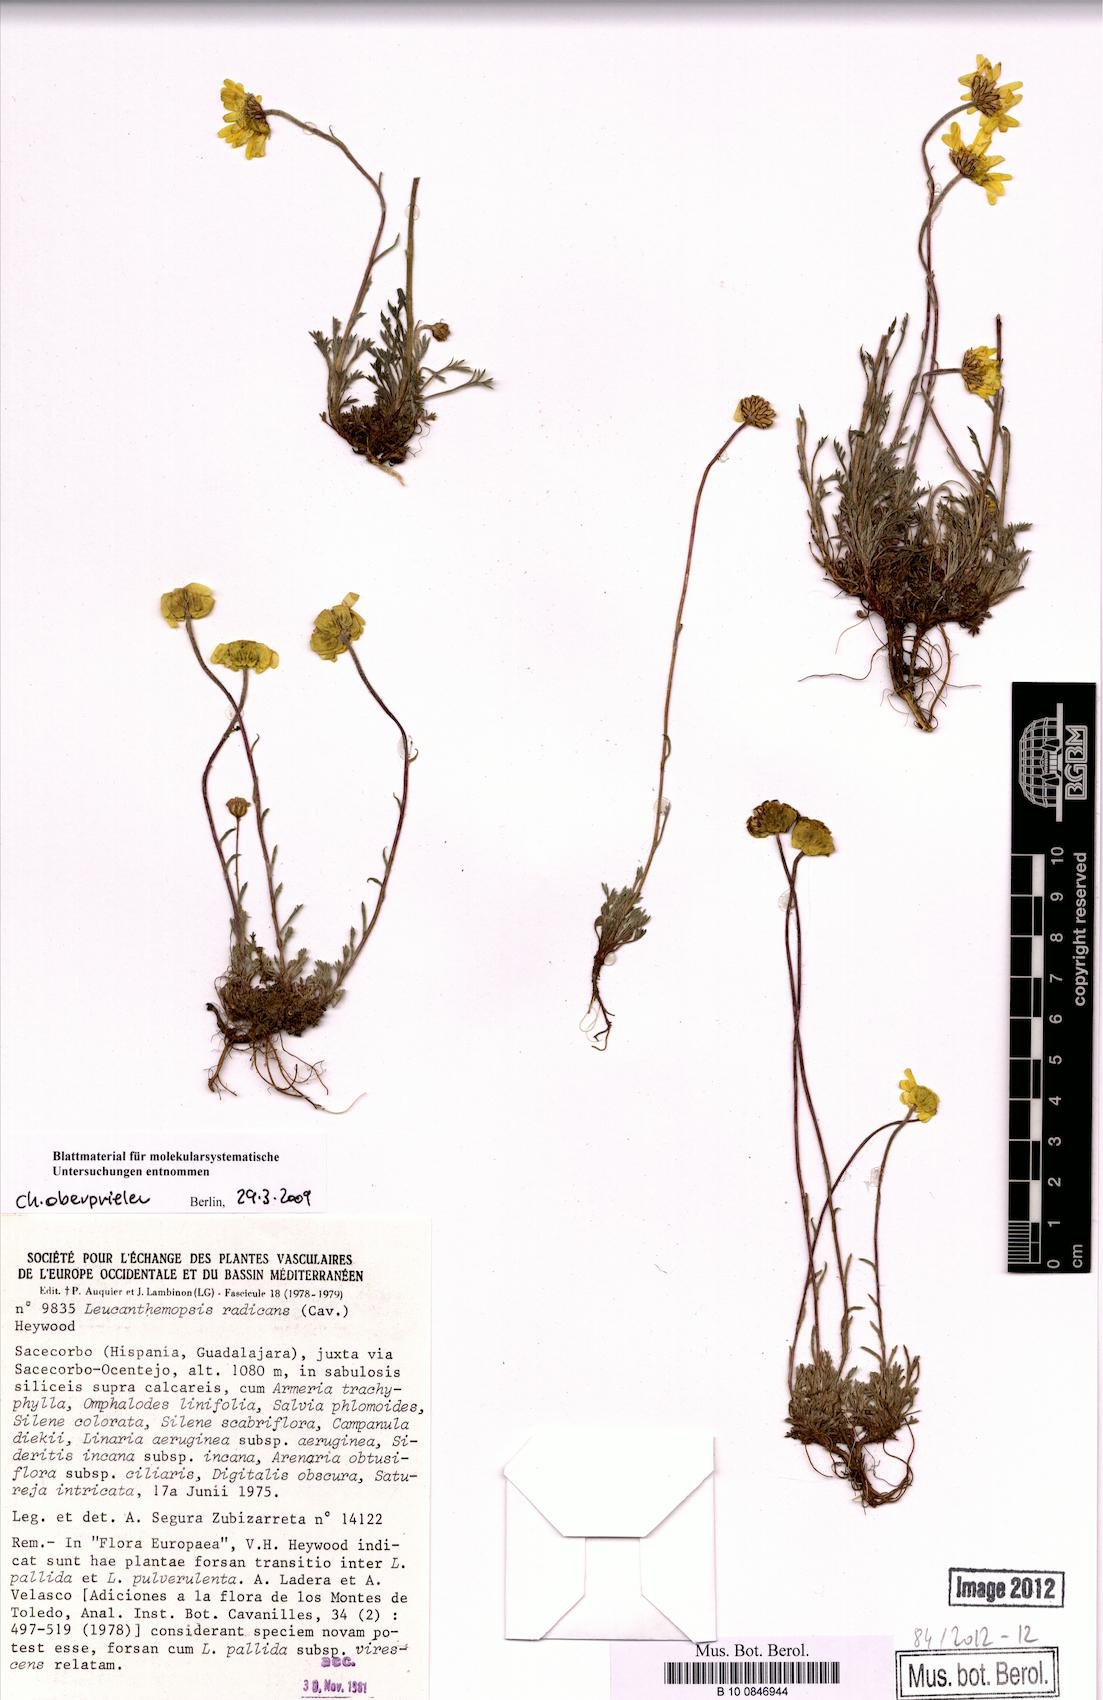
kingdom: Plantae
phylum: Tracheophyta
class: Magnoliopsida
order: Asterales
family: Asteraceae
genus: Leucanthemopsis
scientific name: Leucanthemopsis pallida
